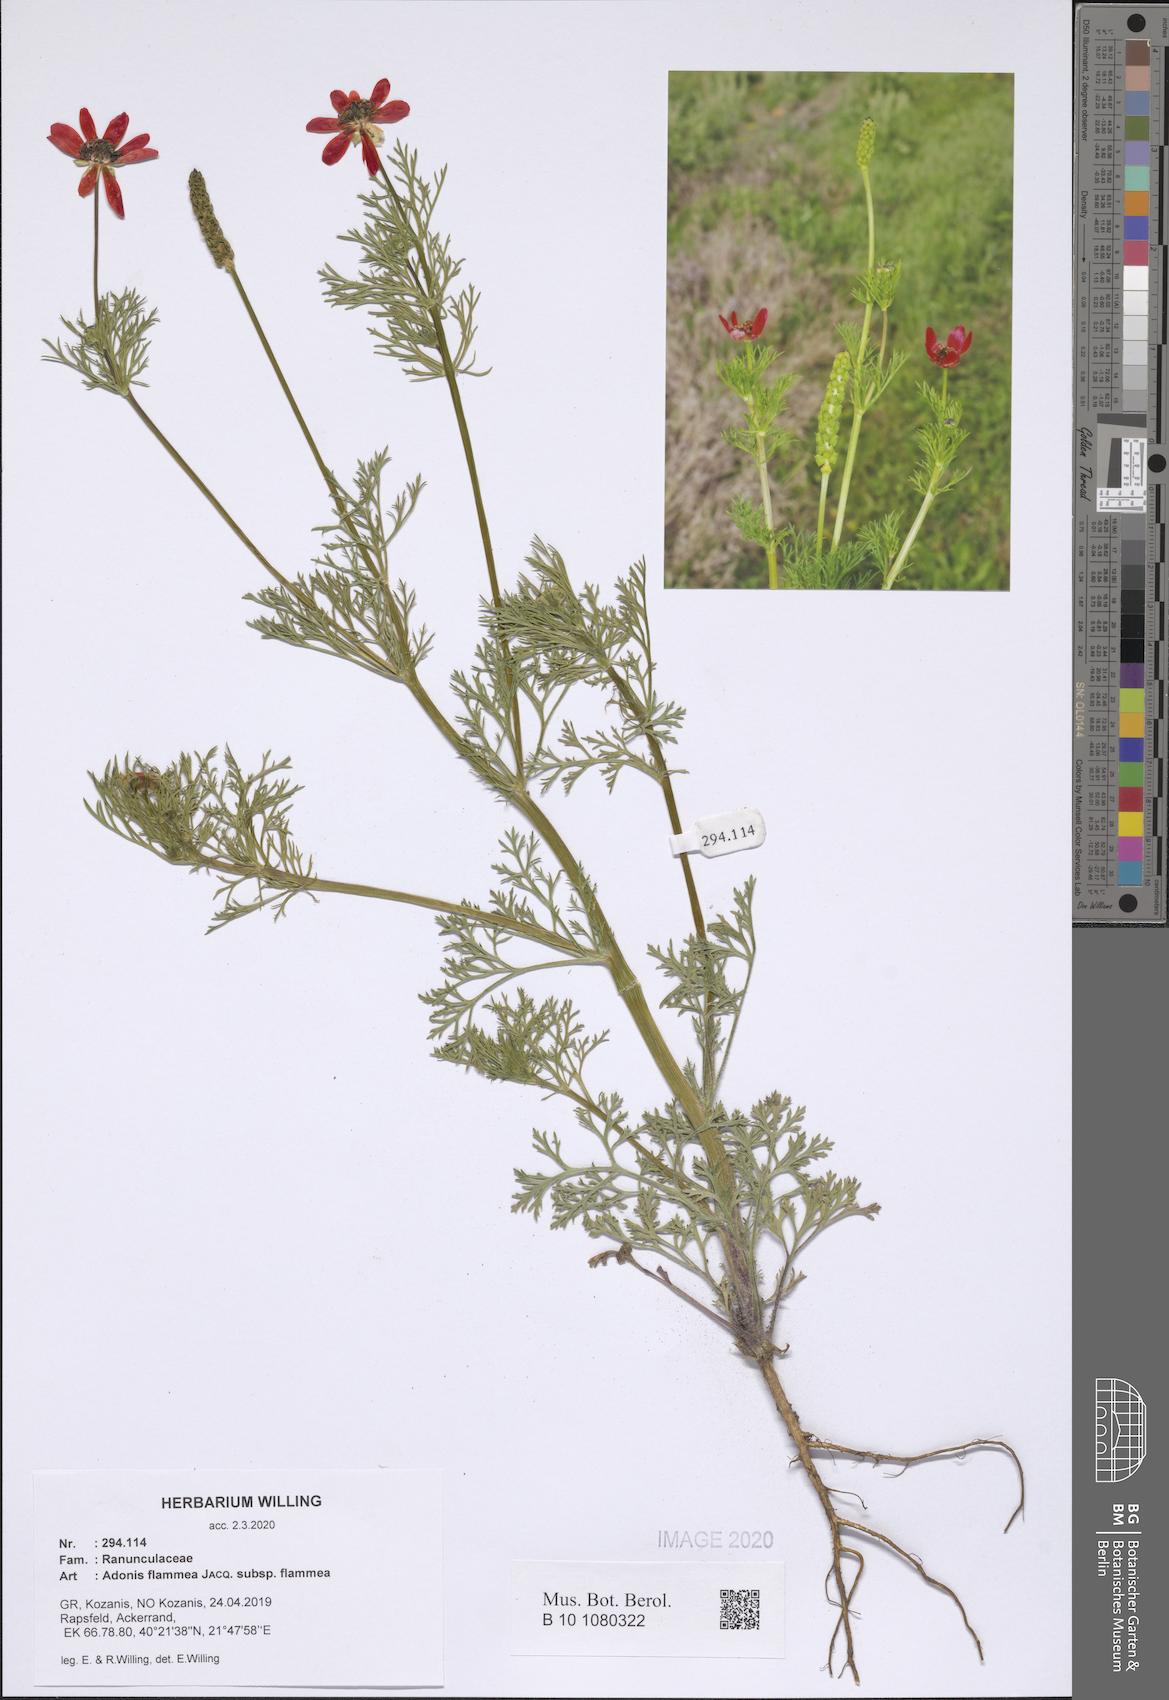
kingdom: Plantae
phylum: Tracheophyta
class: Magnoliopsida
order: Ranunculales
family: Ranunculaceae
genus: Adonis
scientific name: Adonis flammea
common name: Large pheasant's-eye
